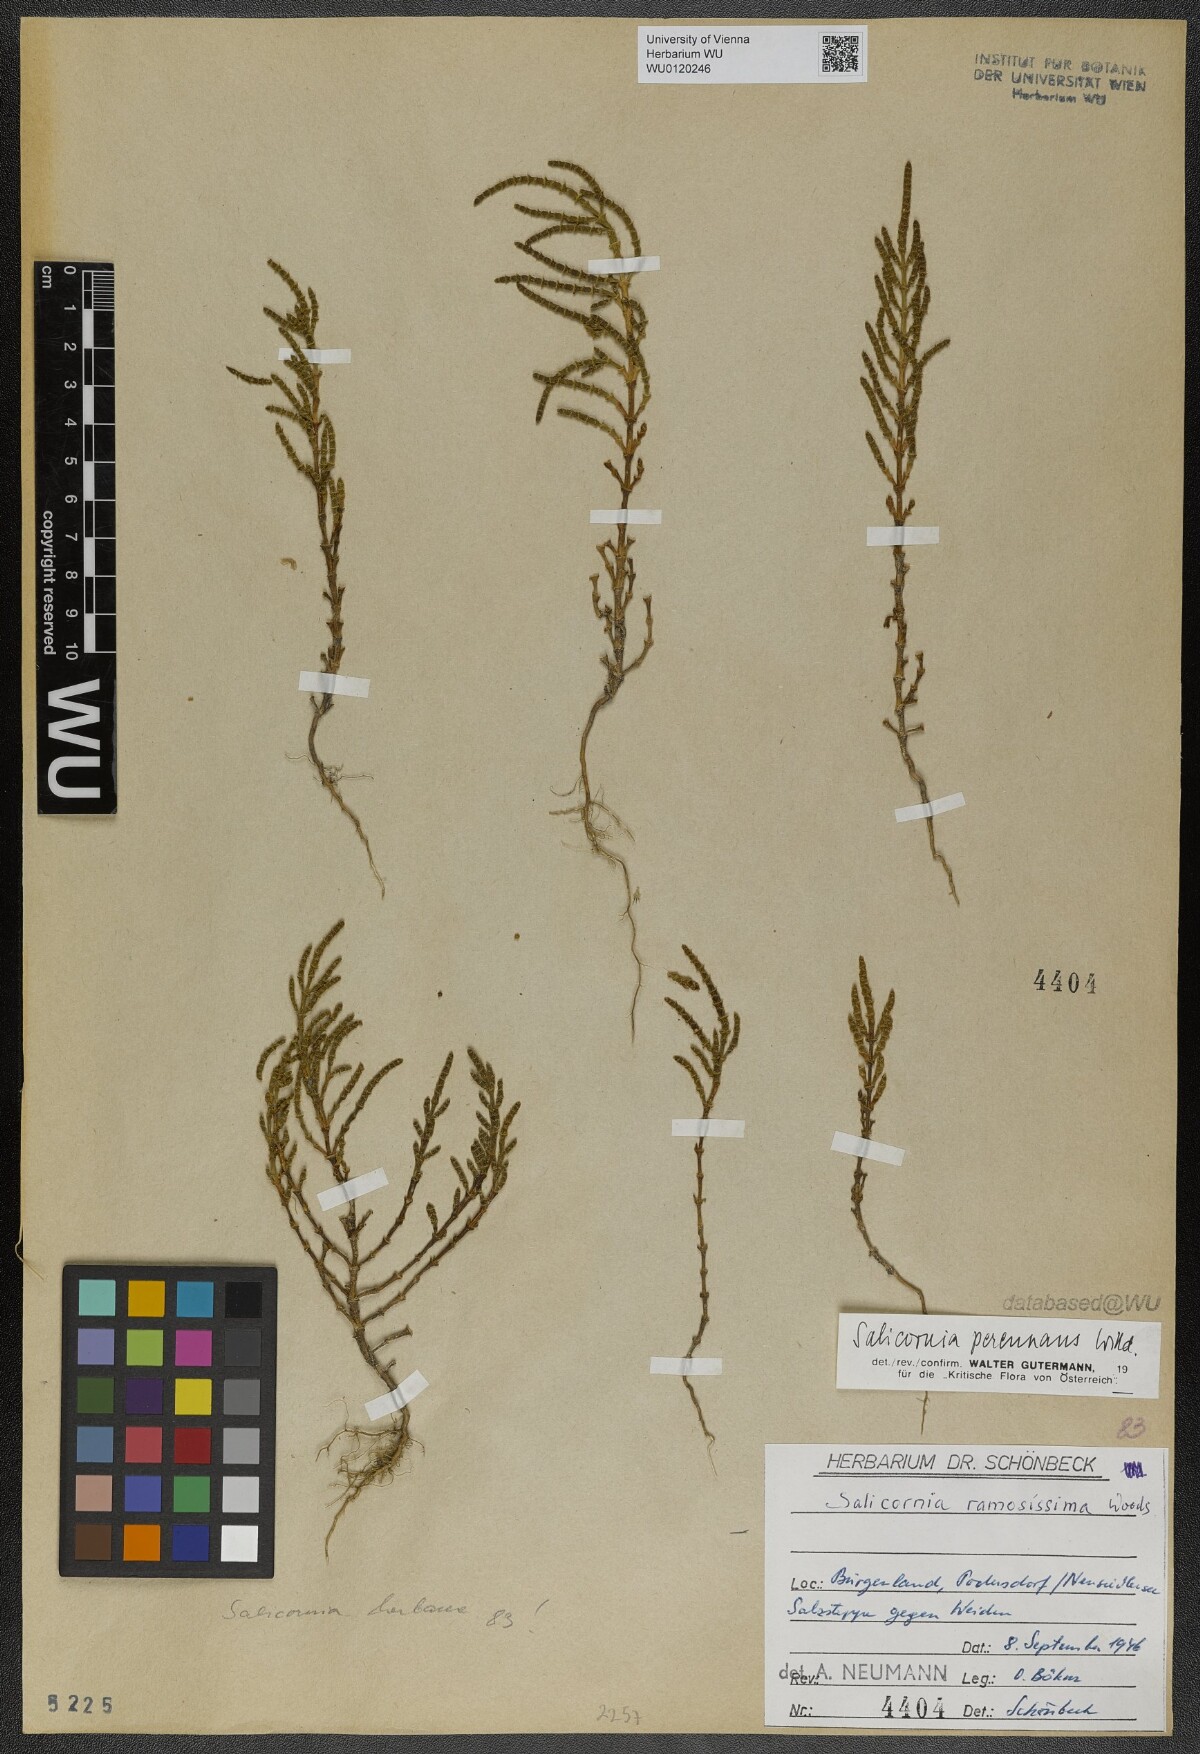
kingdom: Plantae
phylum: Tracheophyta
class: Magnoliopsida
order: Caryophyllales
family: Amaranthaceae
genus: Salicornia
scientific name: Salicornia perennans
